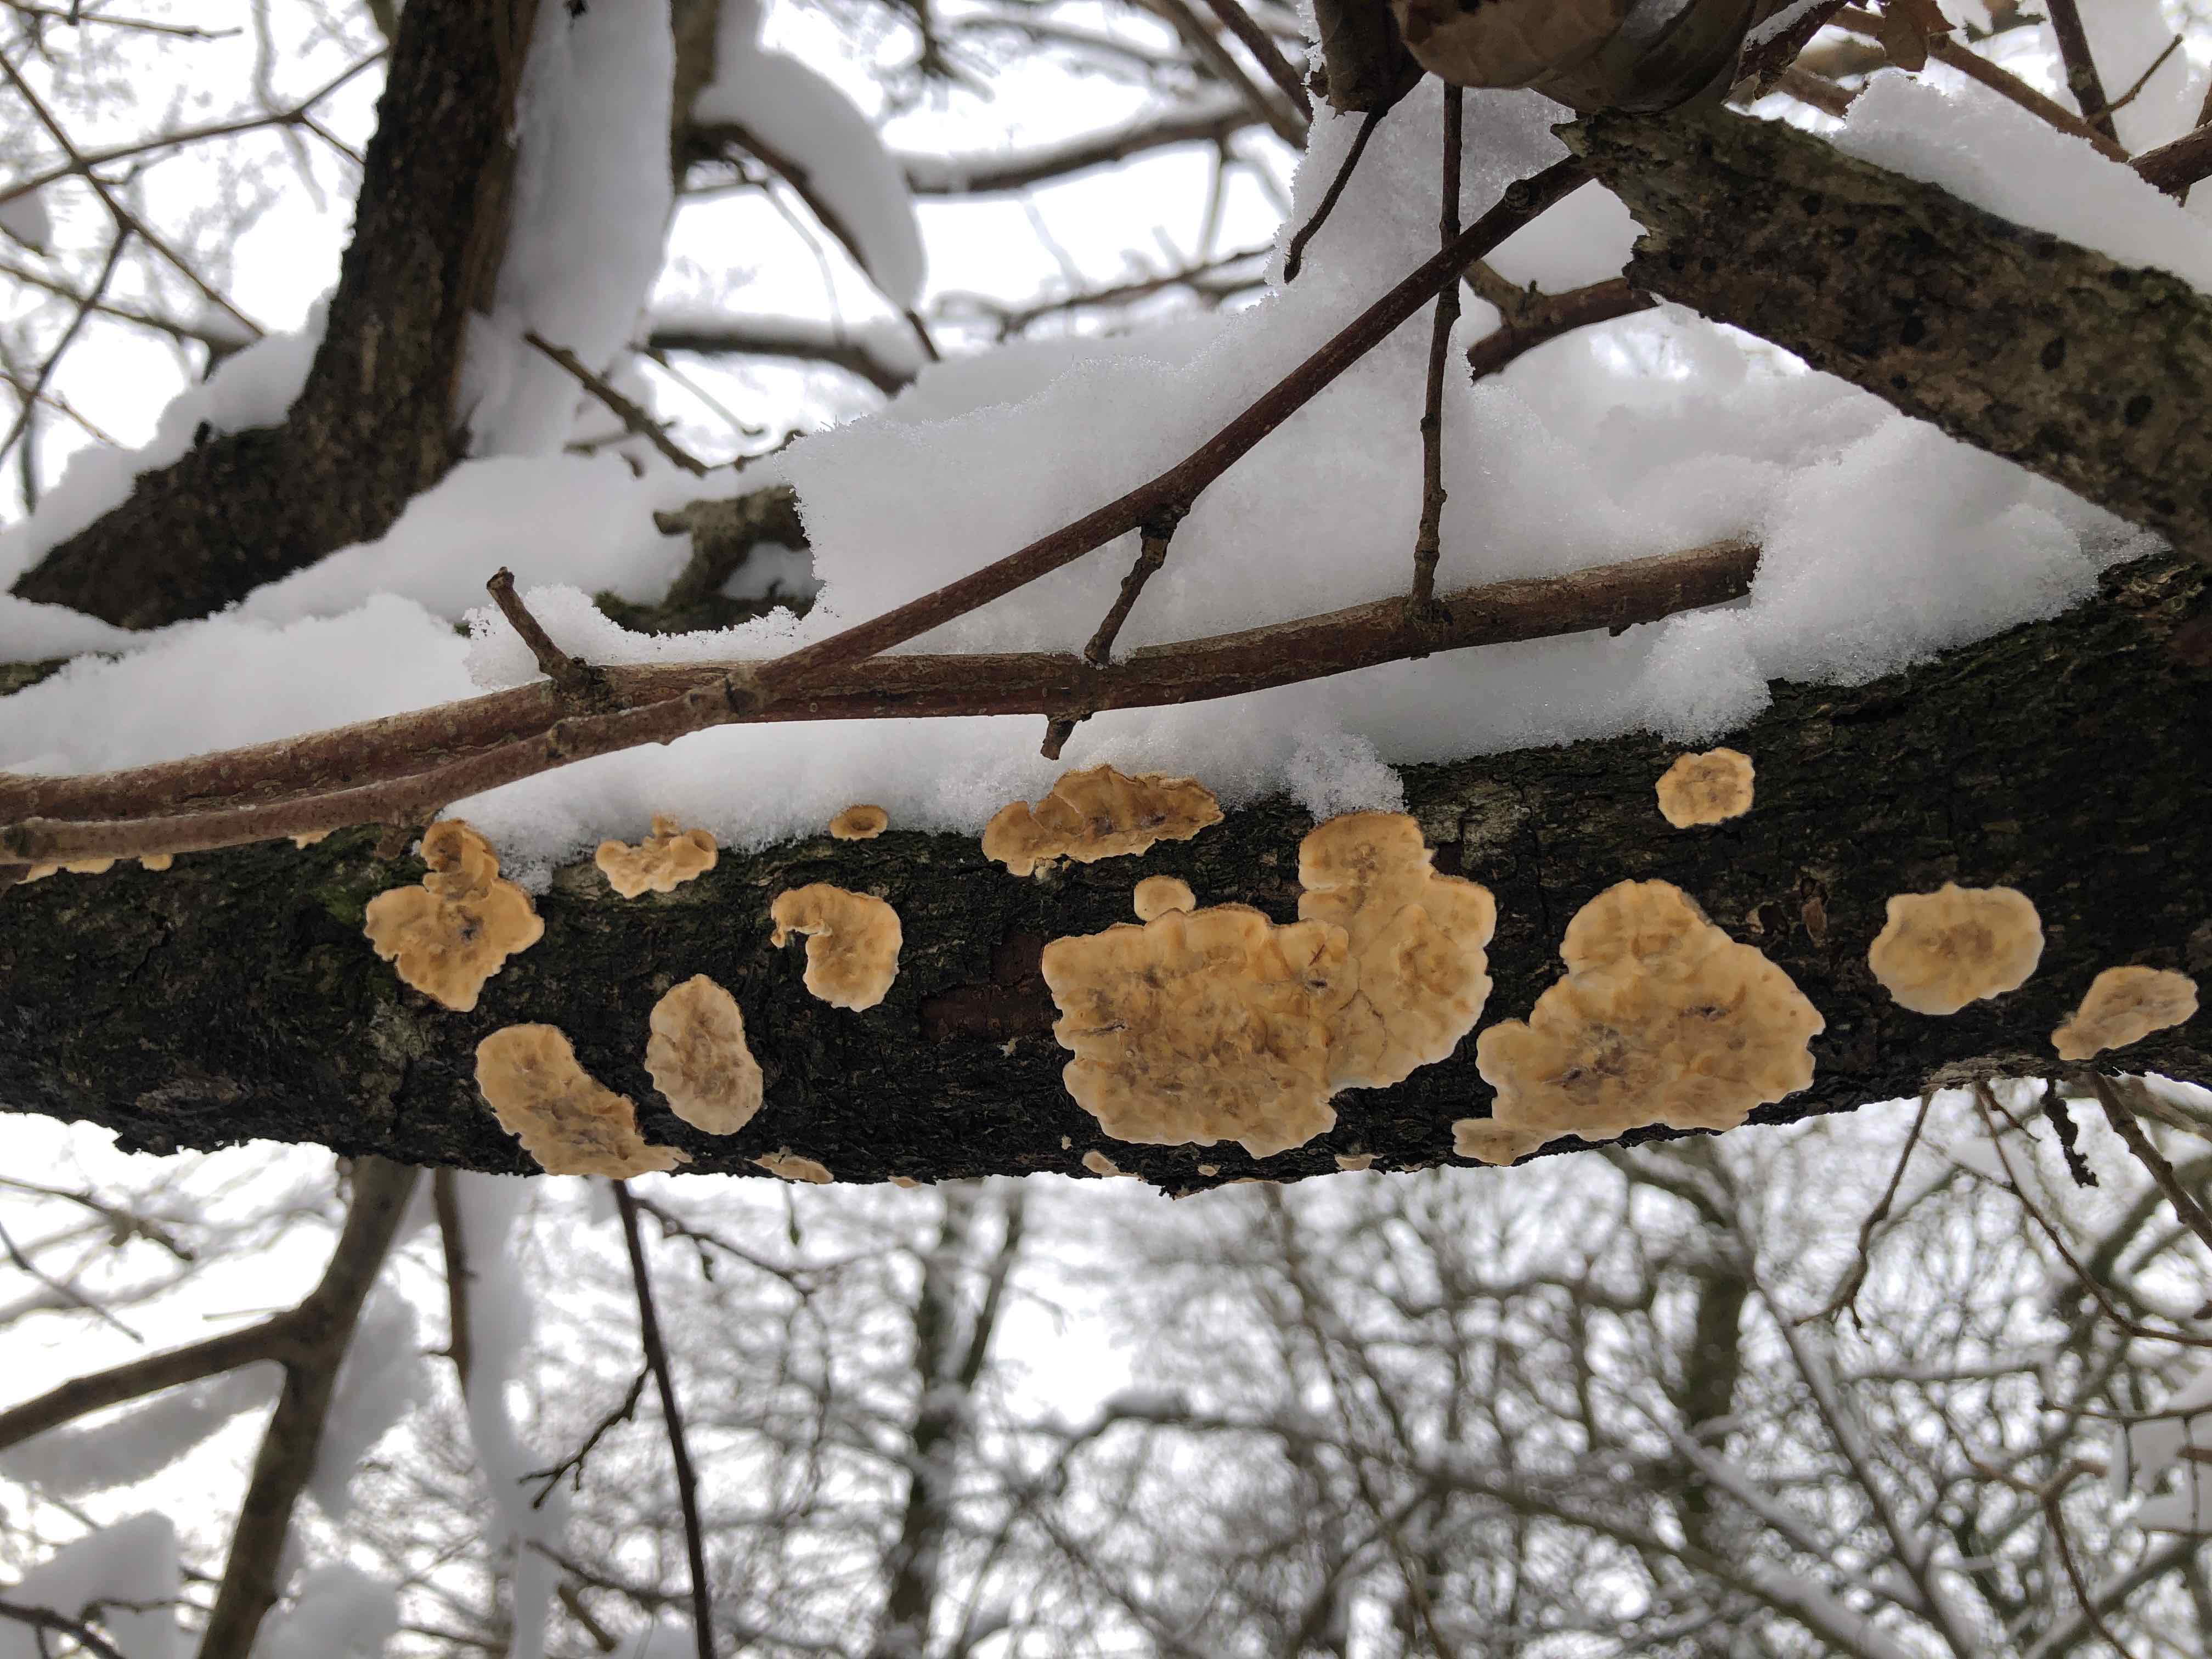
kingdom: Fungi
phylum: Basidiomycota
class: Agaricomycetes
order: Russulales
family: Stereaceae
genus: Stereum
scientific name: Stereum hirsutum
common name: håret lædersvamp
